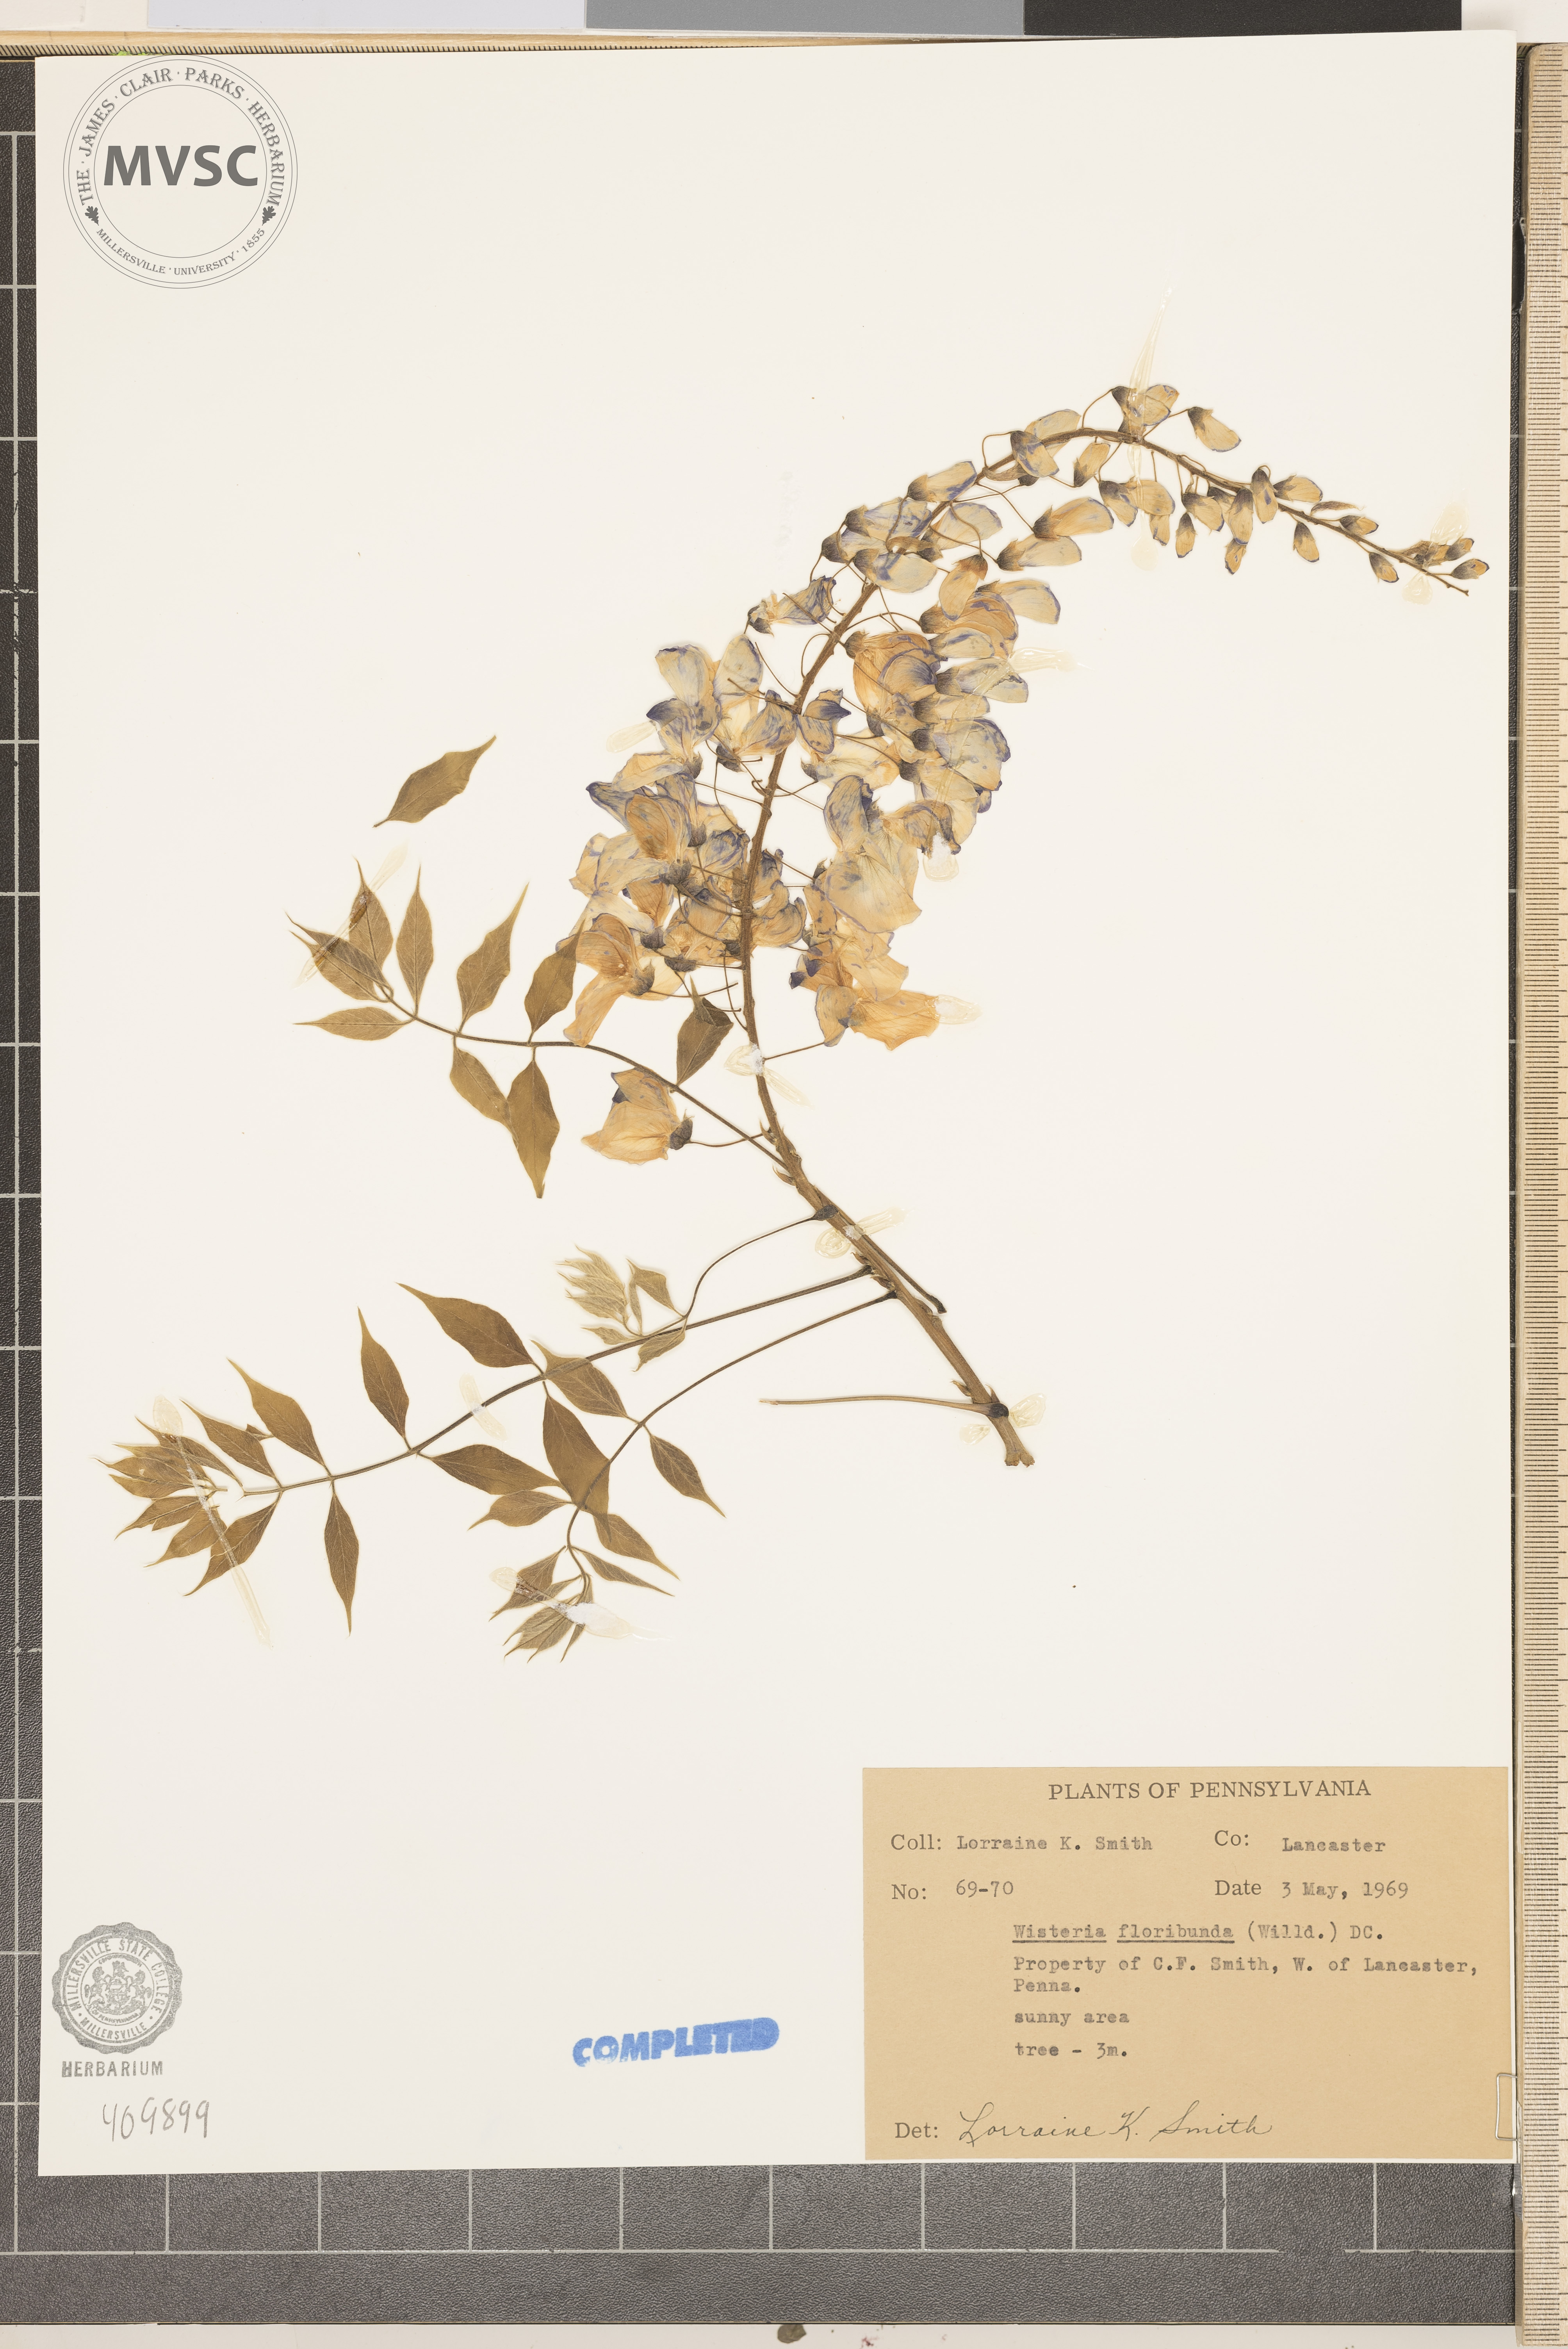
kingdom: Plantae
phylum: Tracheophyta
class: Magnoliopsida
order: Fabales
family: Fabaceae
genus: Wisteria
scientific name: Wisteria floribunda
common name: Japanese wisteria
